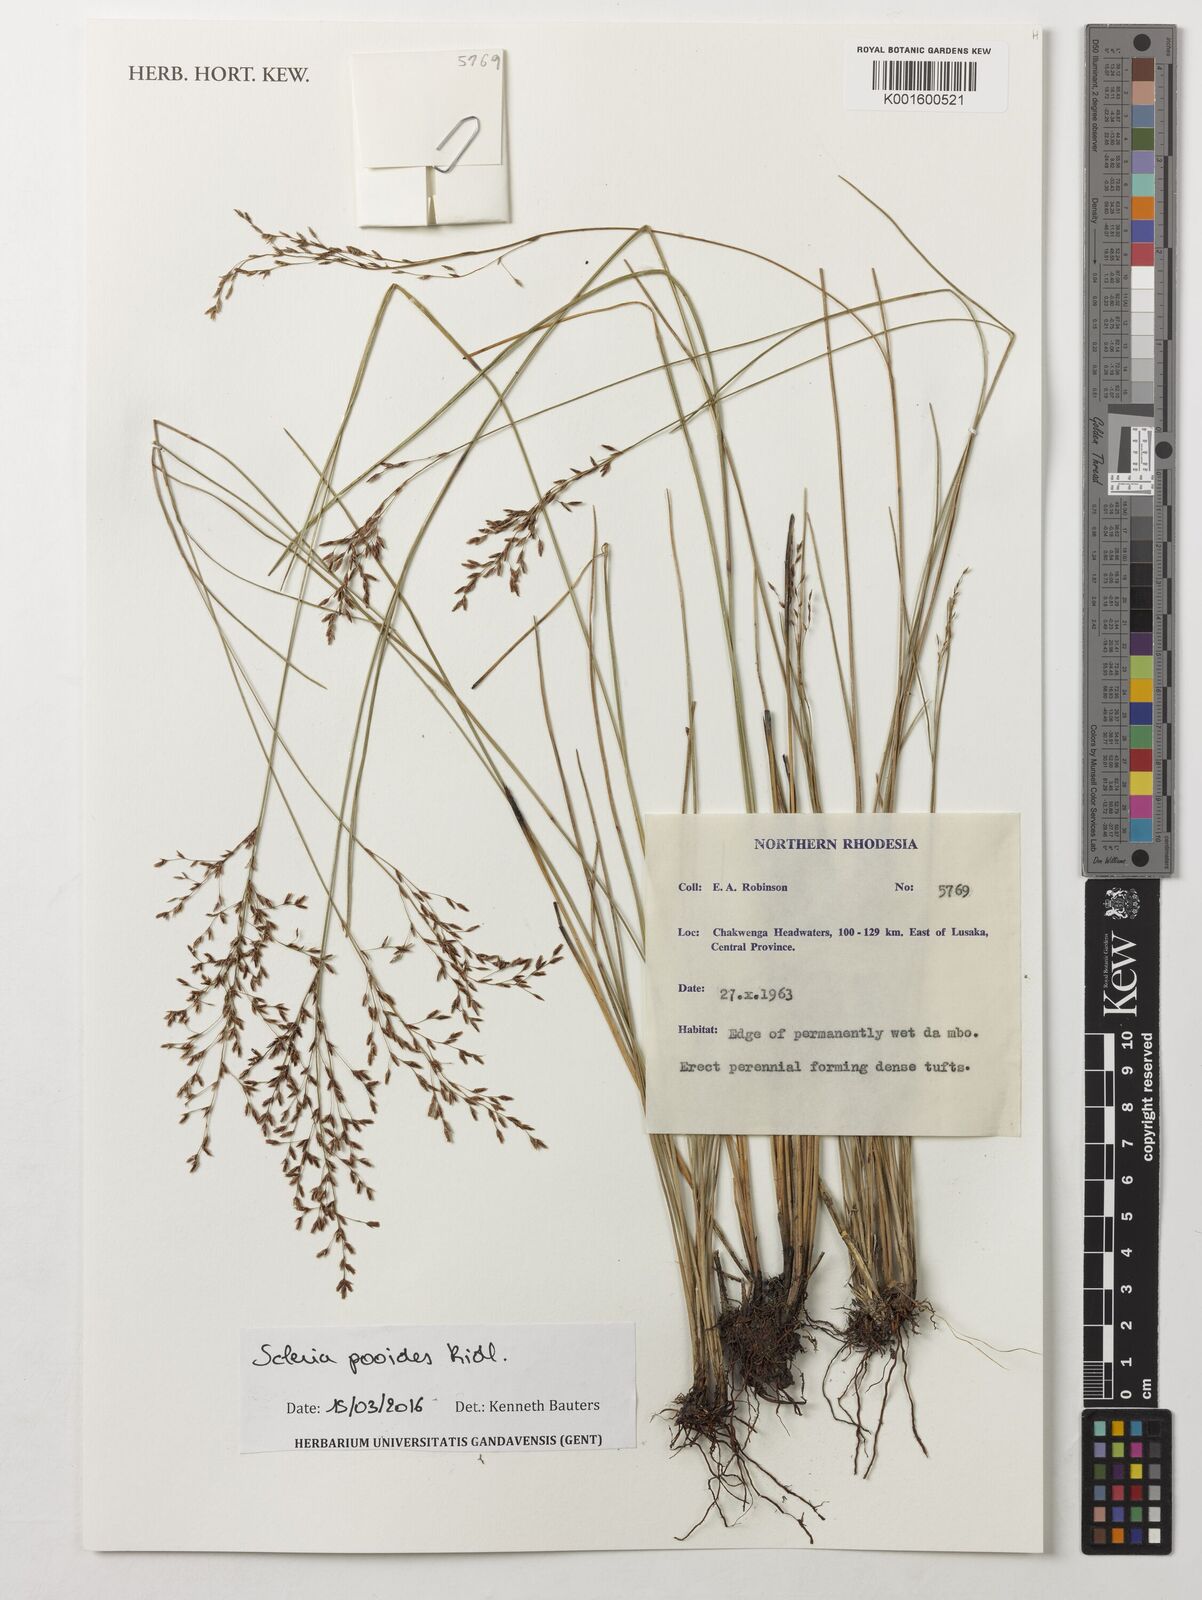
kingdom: Plantae
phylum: Tracheophyta
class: Liliopsida
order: Poales
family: Cyperaceae
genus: Scleria
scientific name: Scleria pooides
